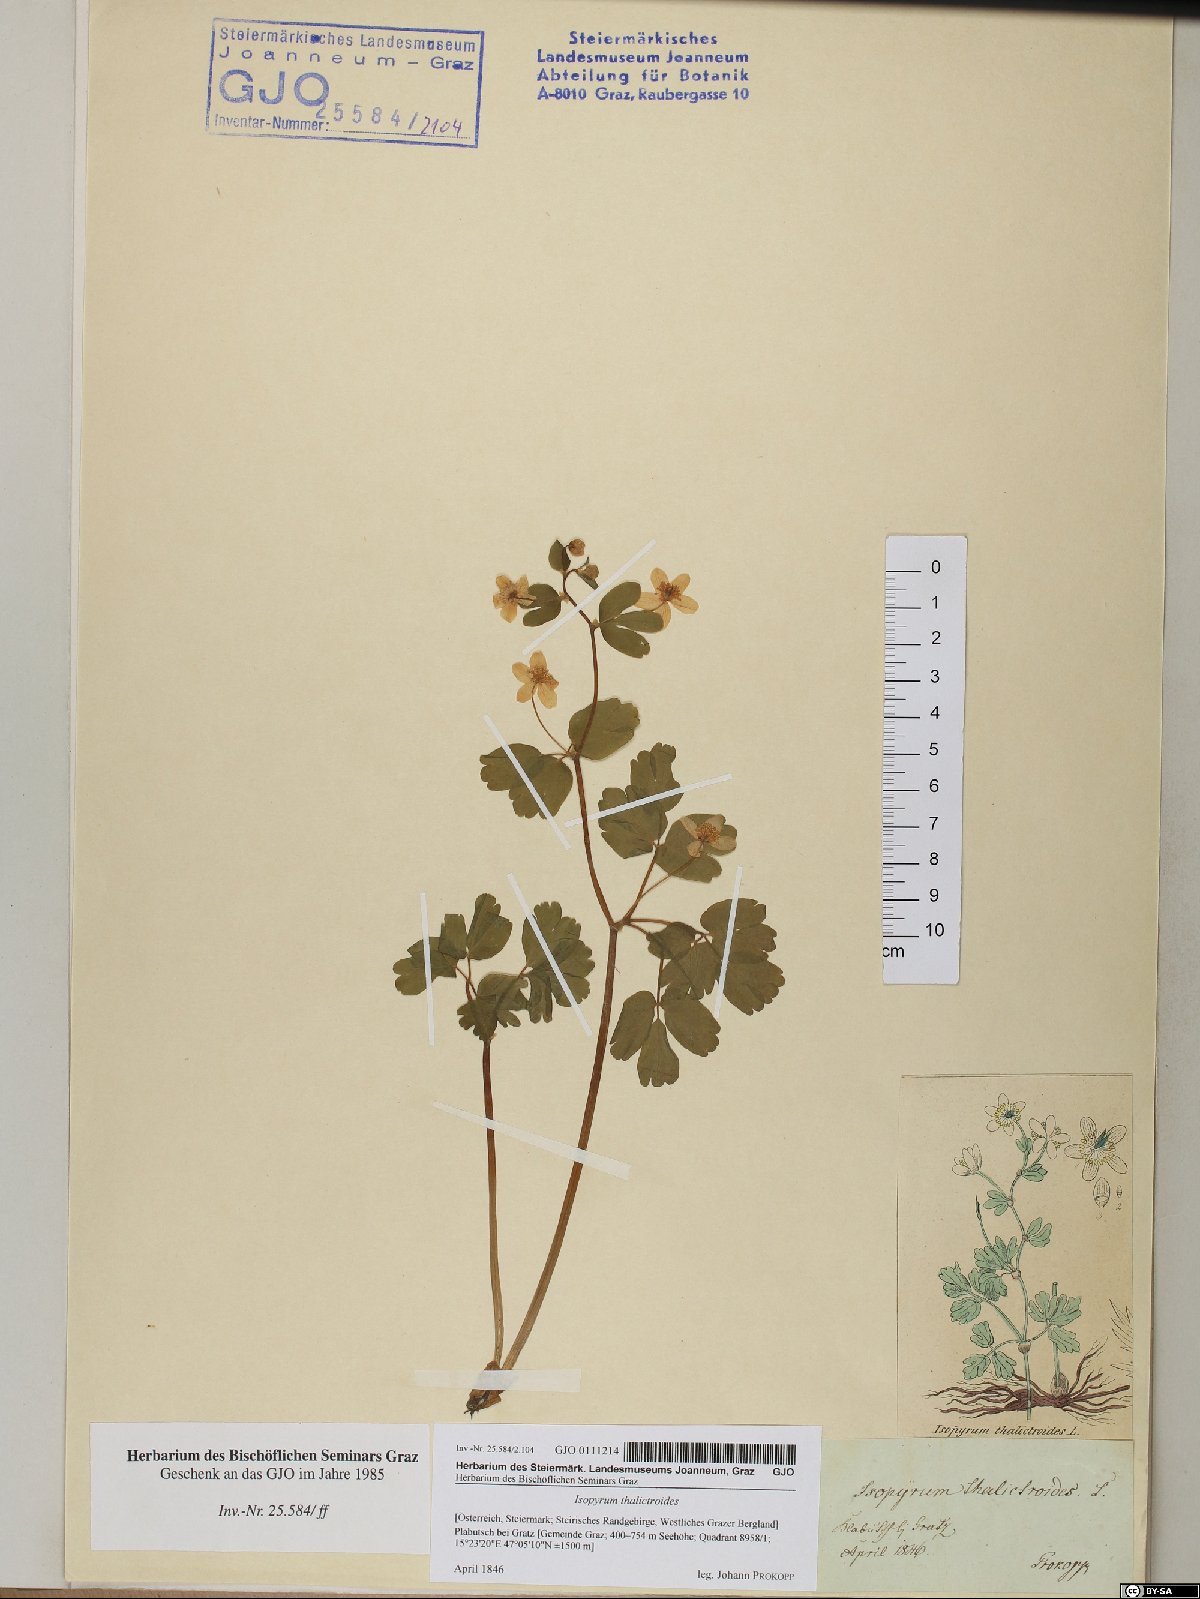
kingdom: Plantae
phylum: Tracheophyta
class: Magnoliopsida
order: Ranunculales
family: Ranunculaceae
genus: Isopyrum
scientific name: Isopyrum thalictroides
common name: Isopyrum
